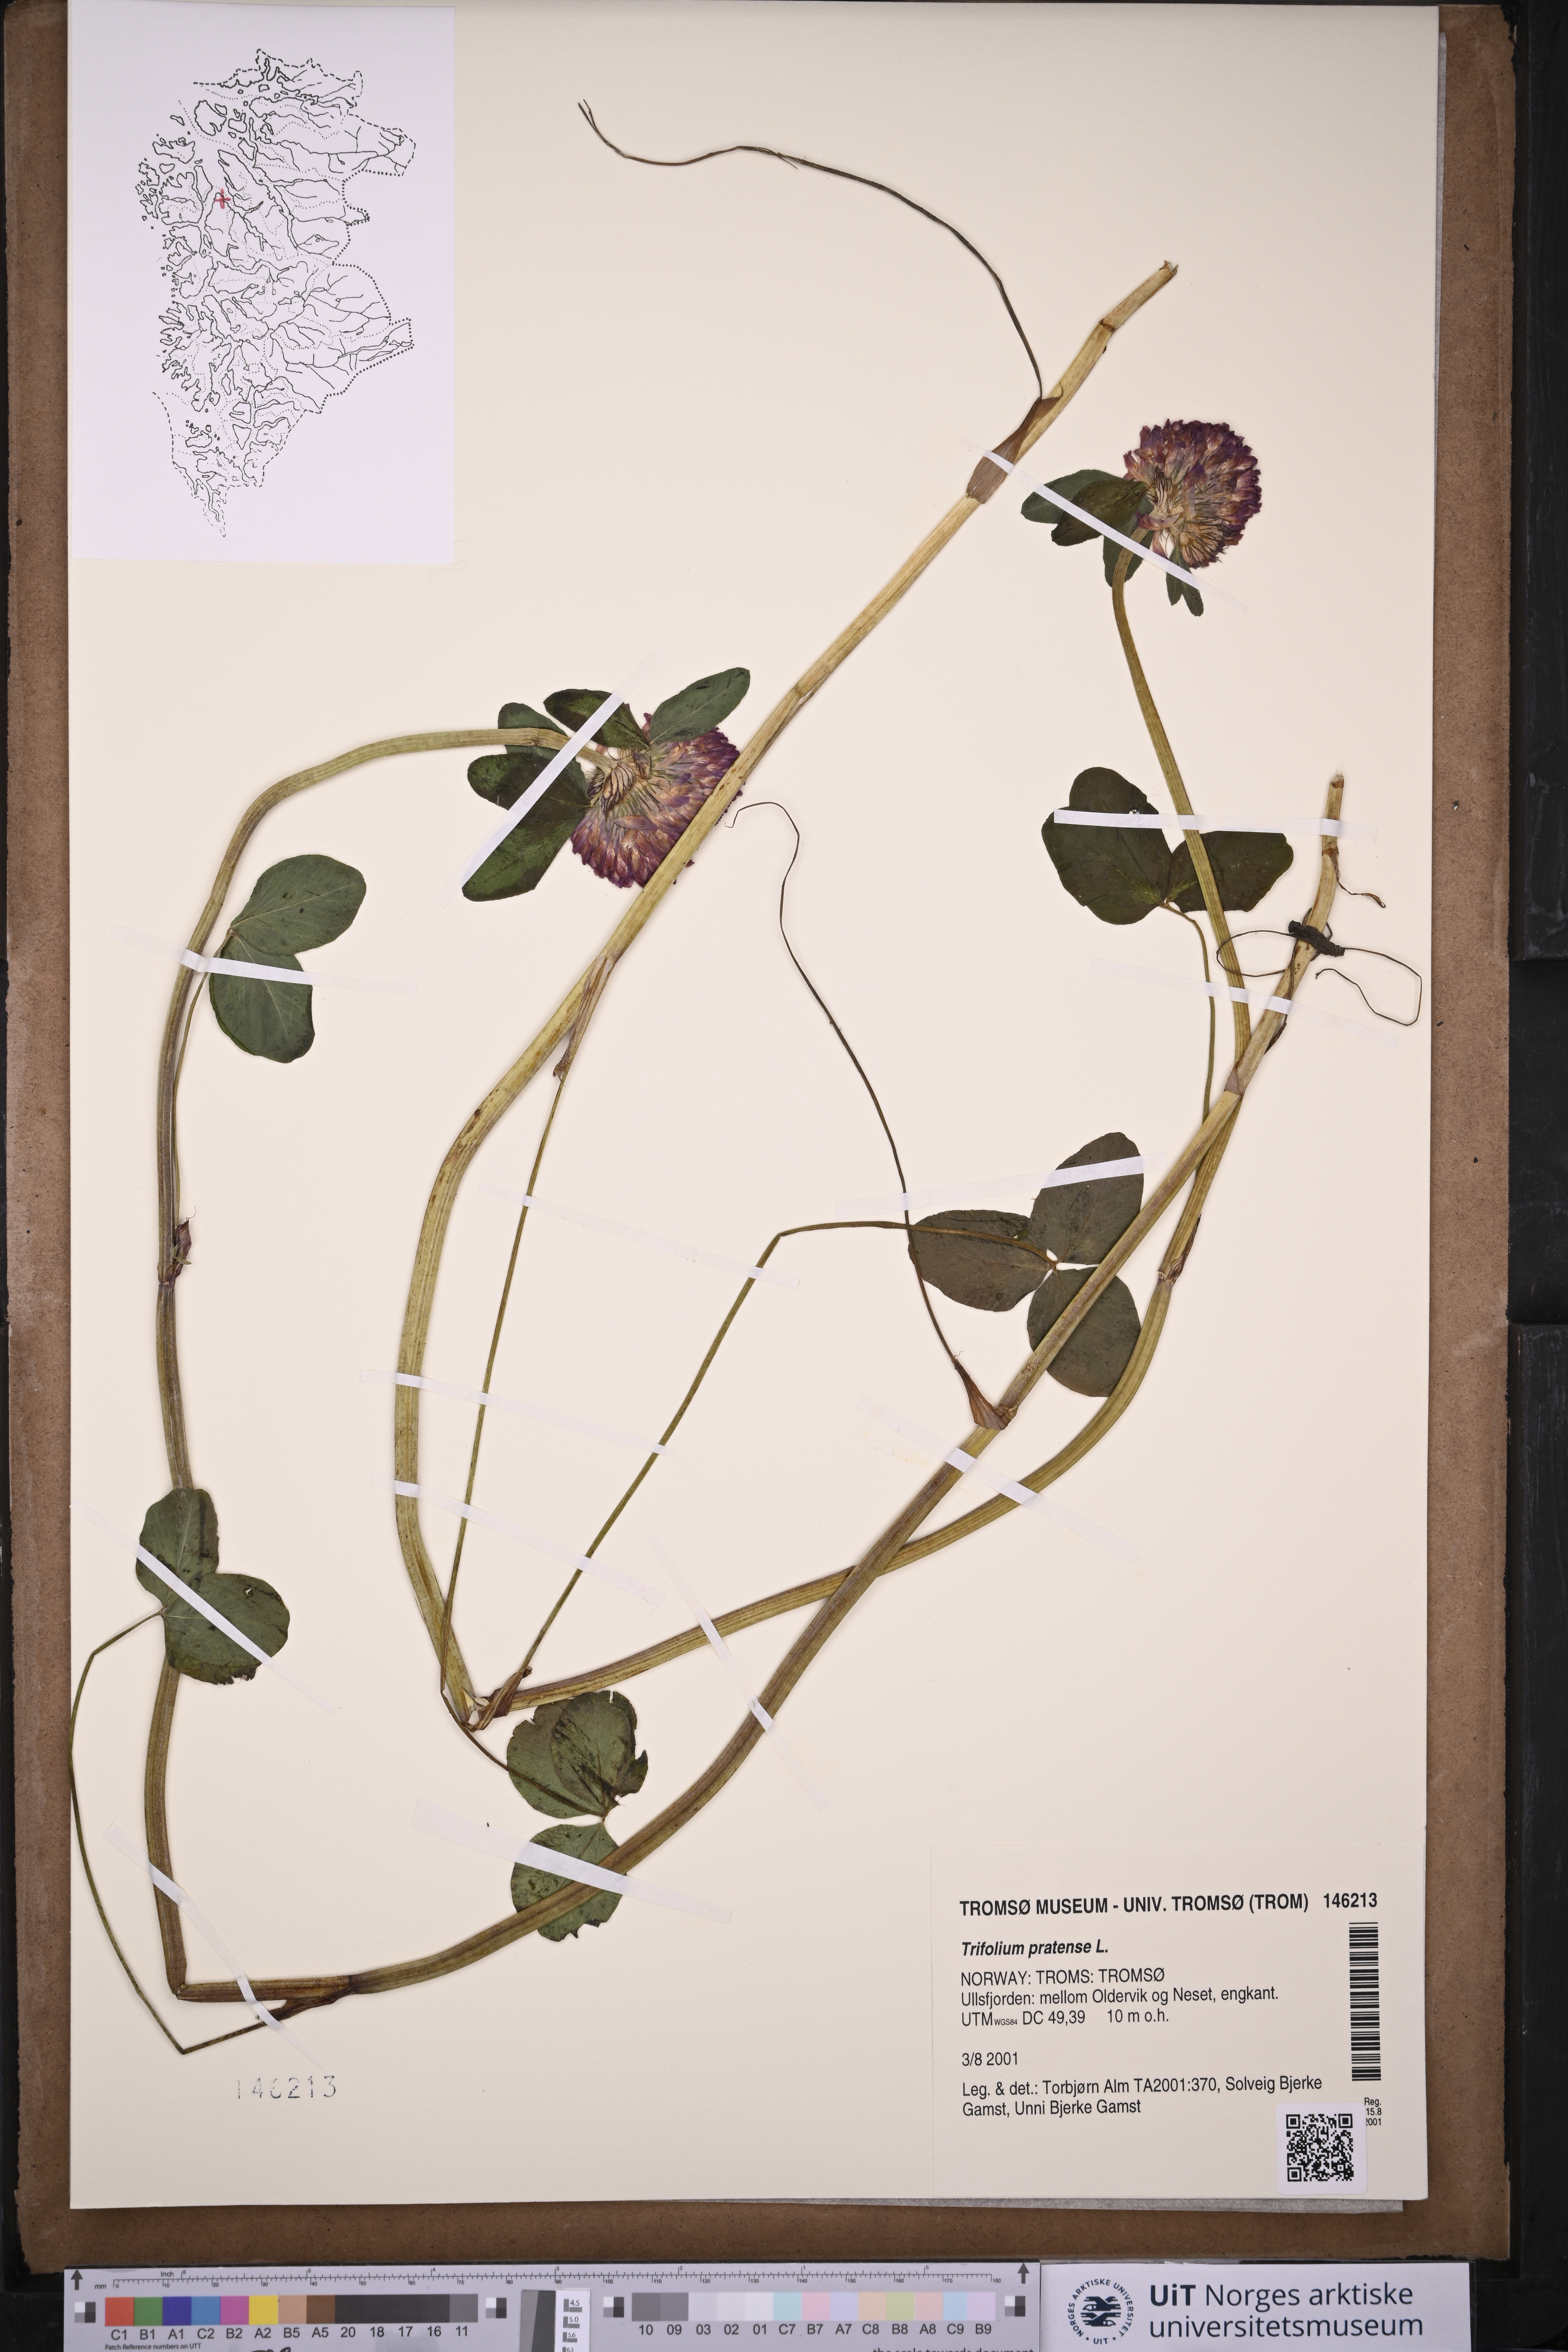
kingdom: Plantae
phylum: Tracheophyta
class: Magnoliopsida
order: Fabales
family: Fabaceae
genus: Trifolium
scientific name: Trifolium pratense
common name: Red clover
